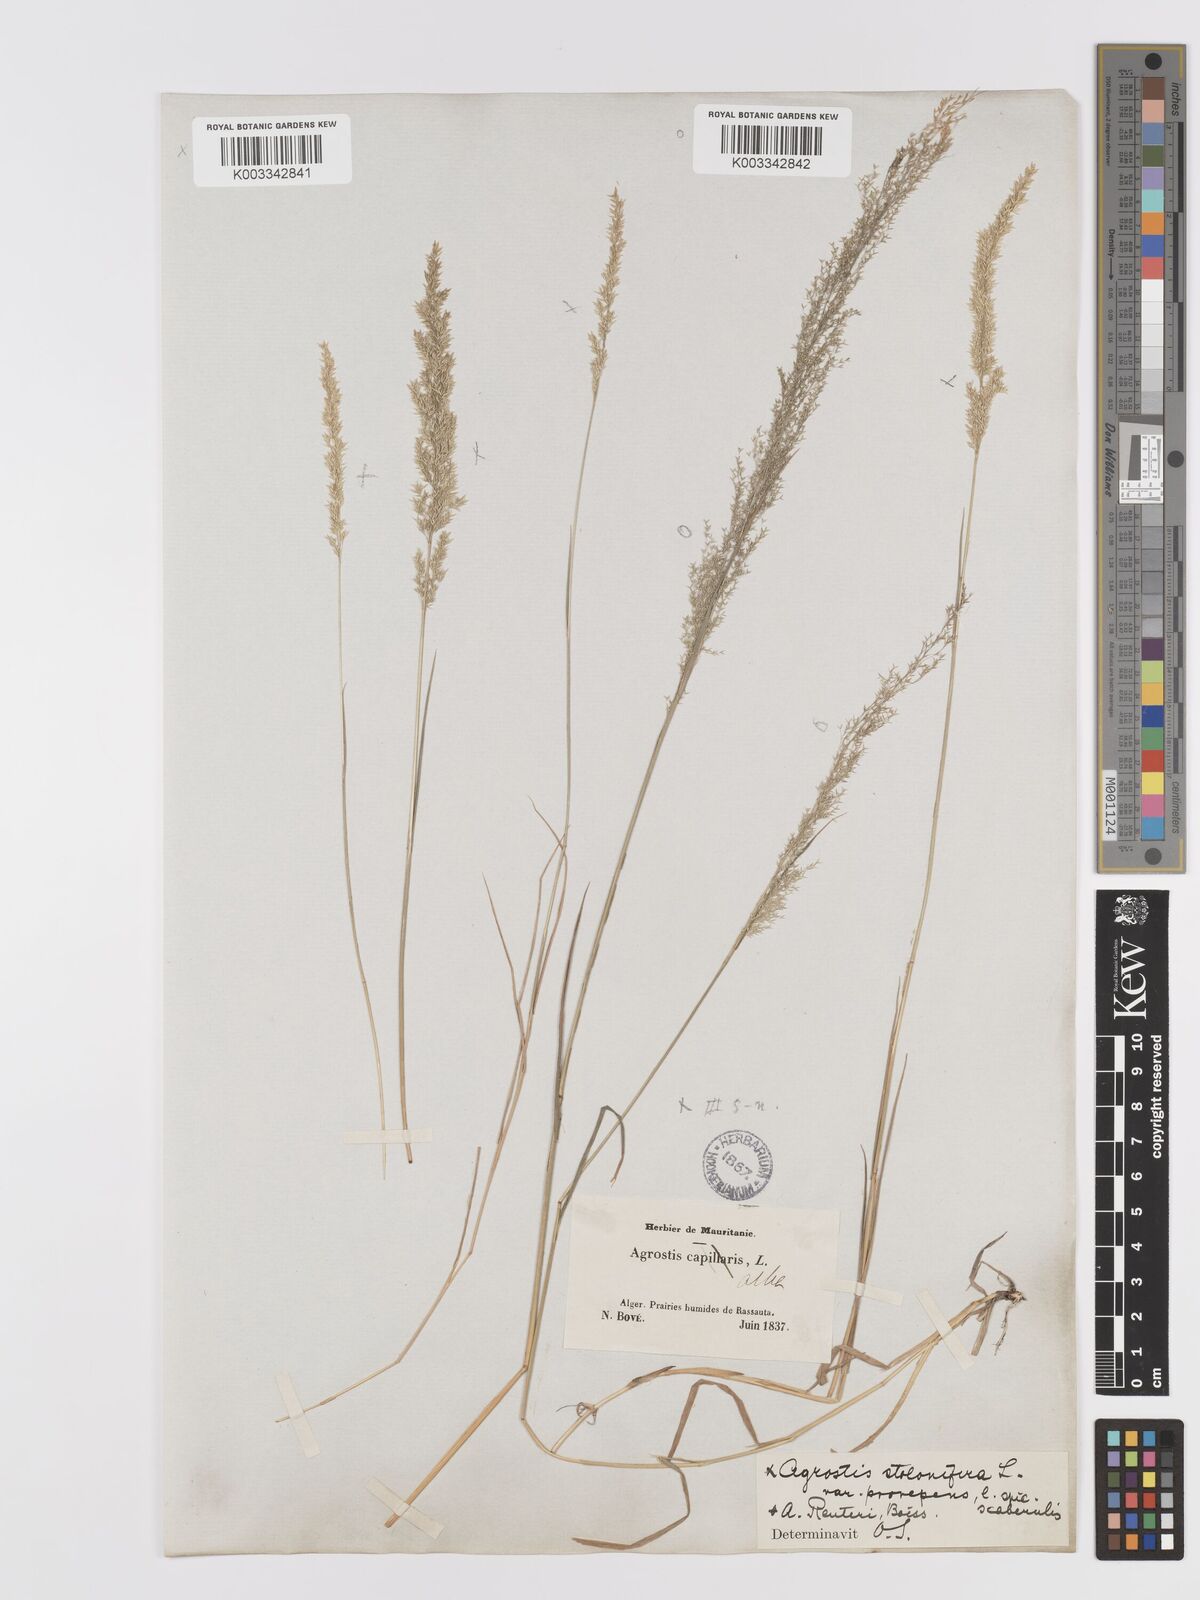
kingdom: Plantae
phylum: Tracheophyta
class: Liliopsida
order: Poales
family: Poaceae
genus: Agrostis
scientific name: Agrostis stolonifera
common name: Creeping bentgrass
